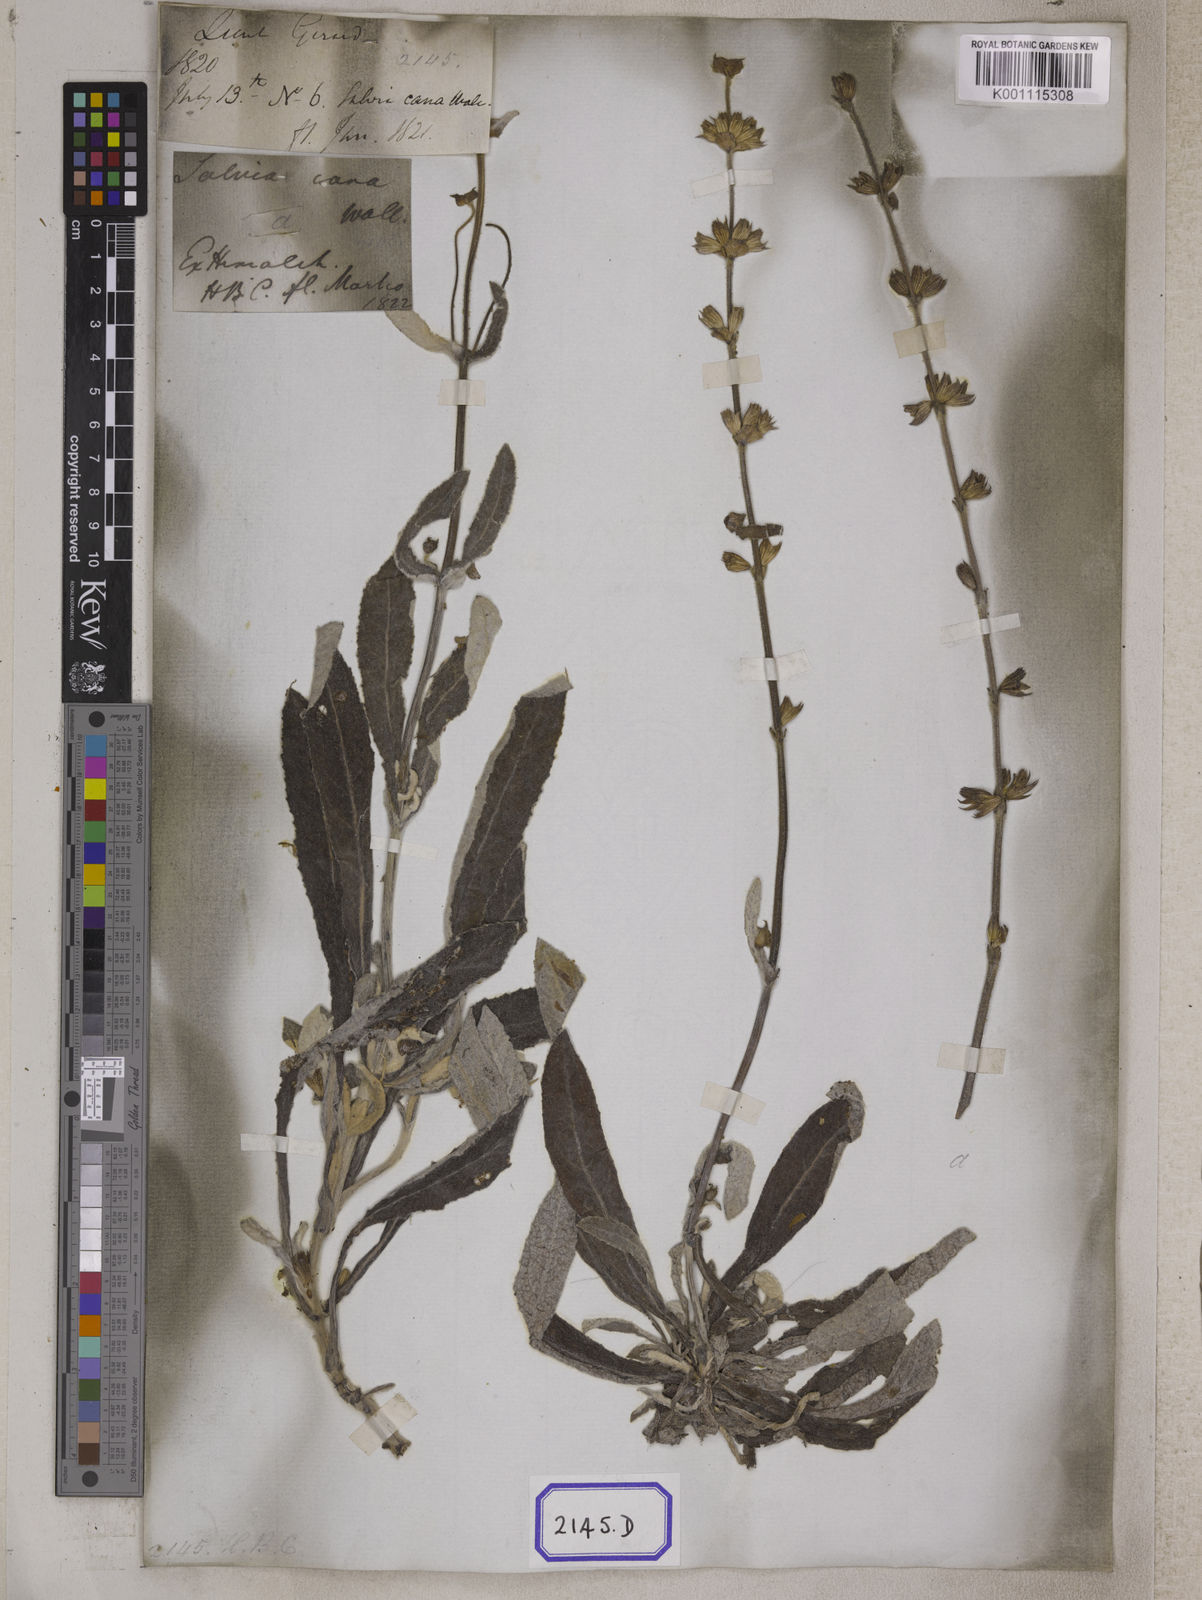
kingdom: Plantae
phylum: Tracheophyta
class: Magnoliopsida
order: Lamiales
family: Lamiaceae
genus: Salvia
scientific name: Salvia
